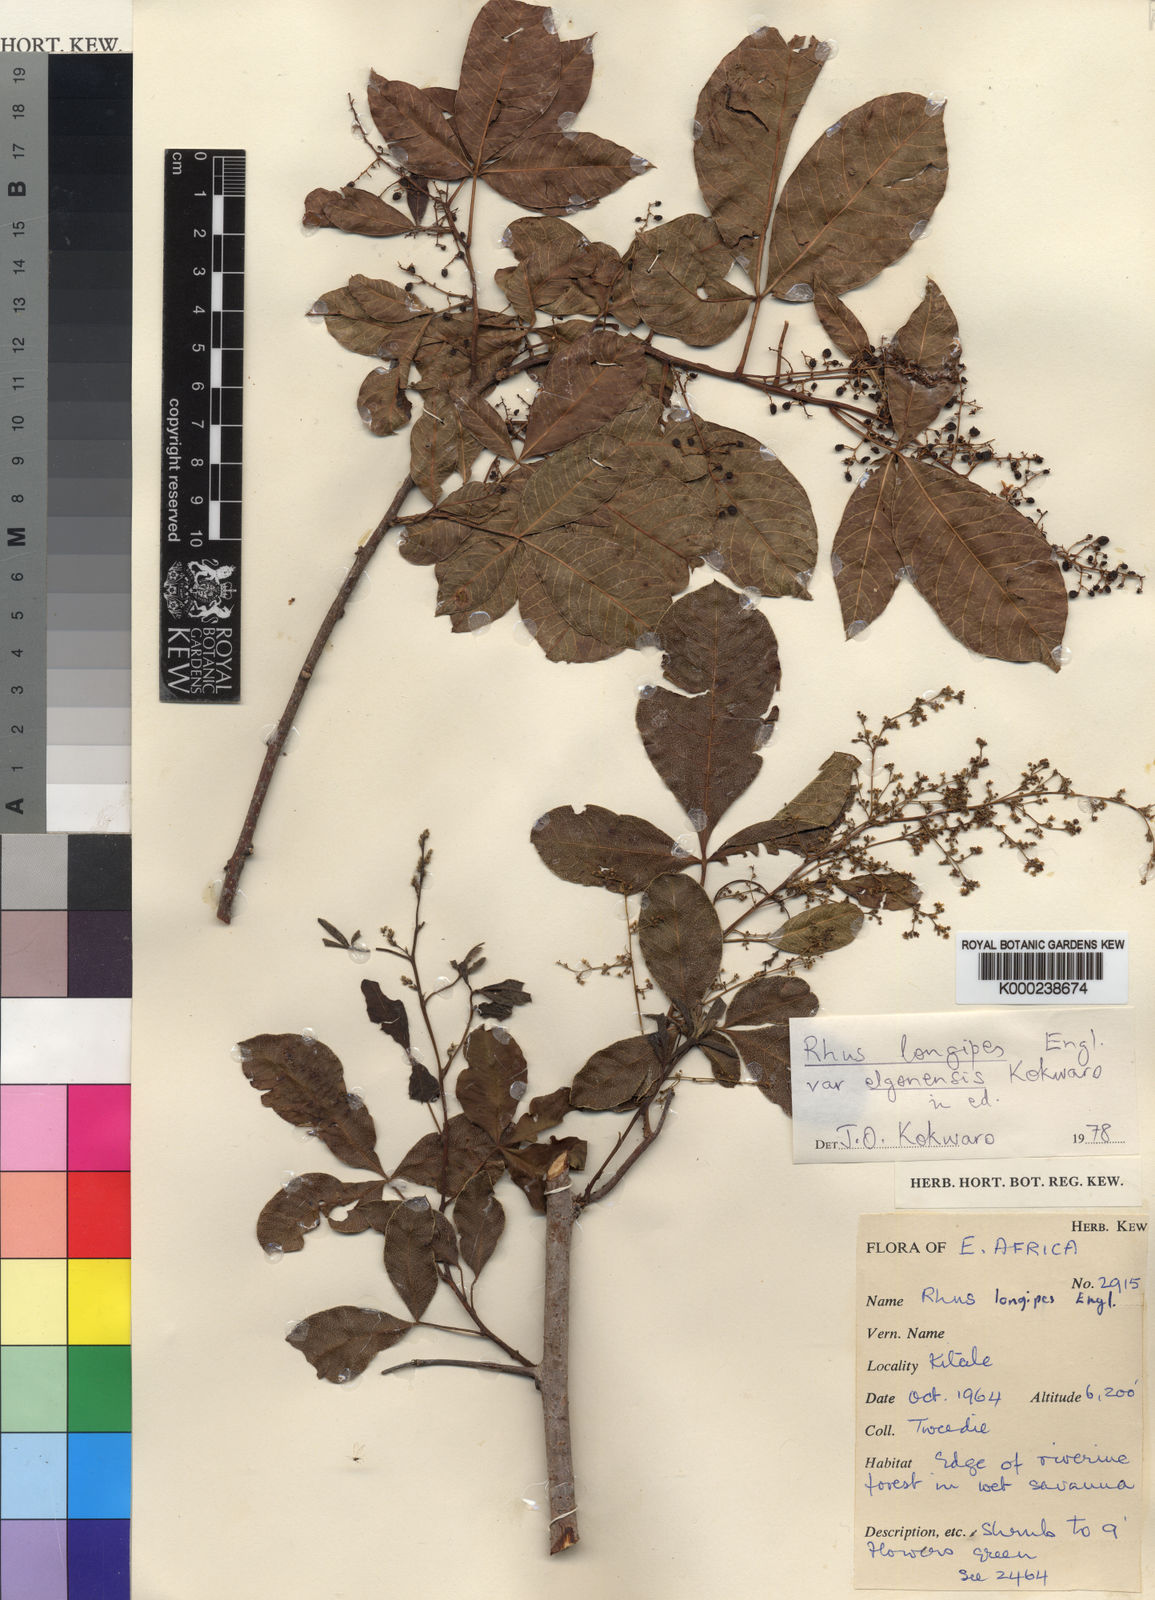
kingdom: Plantae
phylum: Tracheophyta
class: Magnoliopsida
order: Sapindales
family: Anacardiaceae
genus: Searsia
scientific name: Searsia longipes
